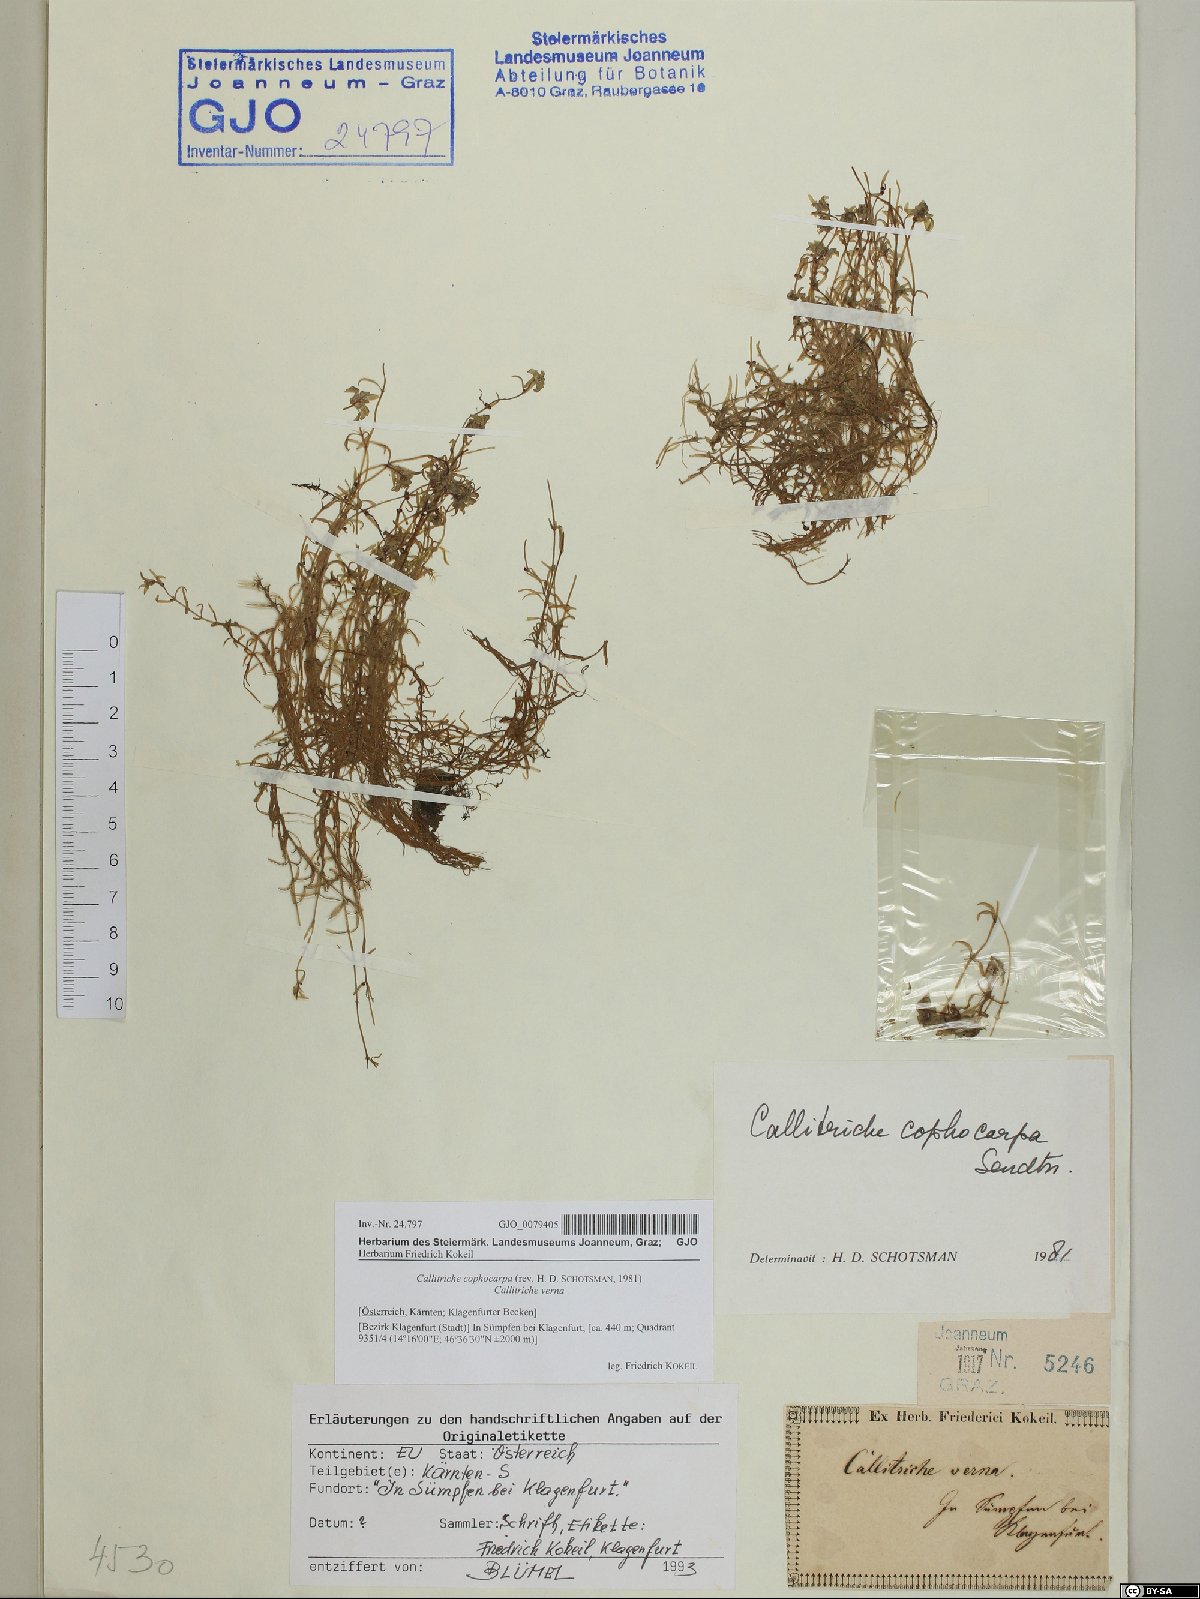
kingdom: Plantae
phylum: Tracheophyta
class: Magnoliopsida
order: Lamiales
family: Plantaginaceae
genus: Callitriche
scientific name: Callitriche cophocarpa
